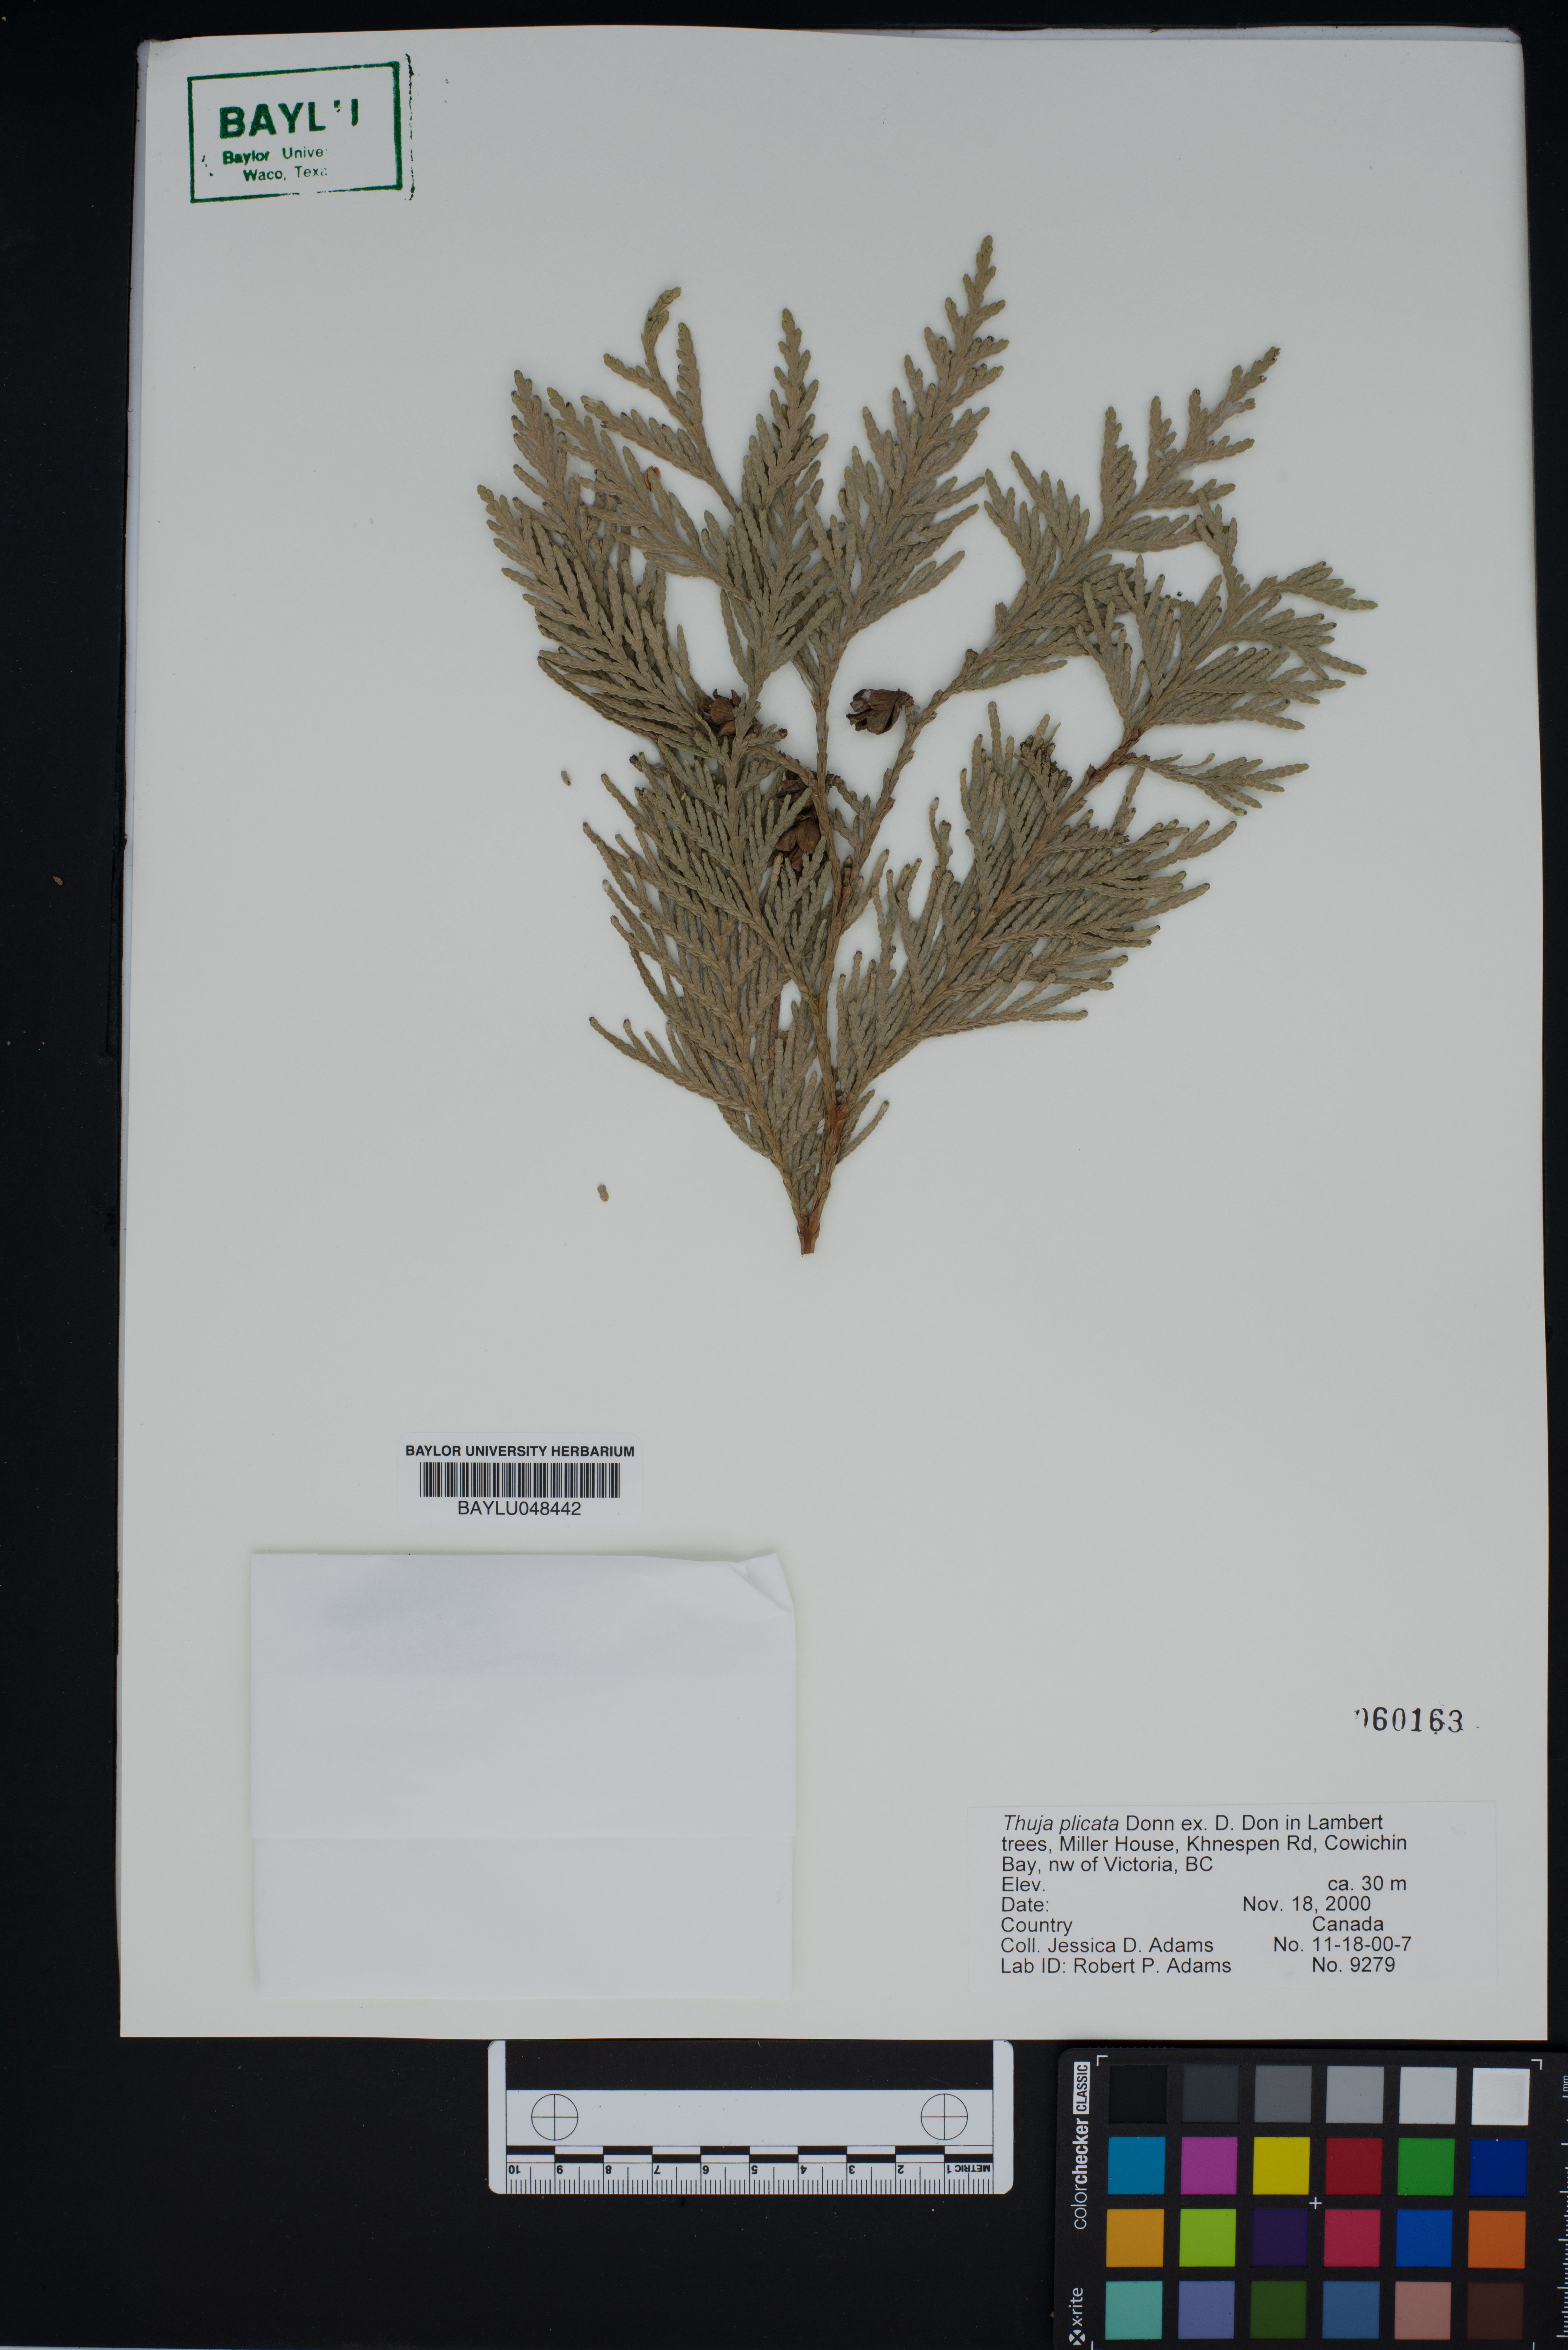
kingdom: Plantae
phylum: Tracheophyta
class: Pinopsida
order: Pinales
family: Cupressaceae
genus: Thuja
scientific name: Thuja plicata
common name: Western red-cedar
